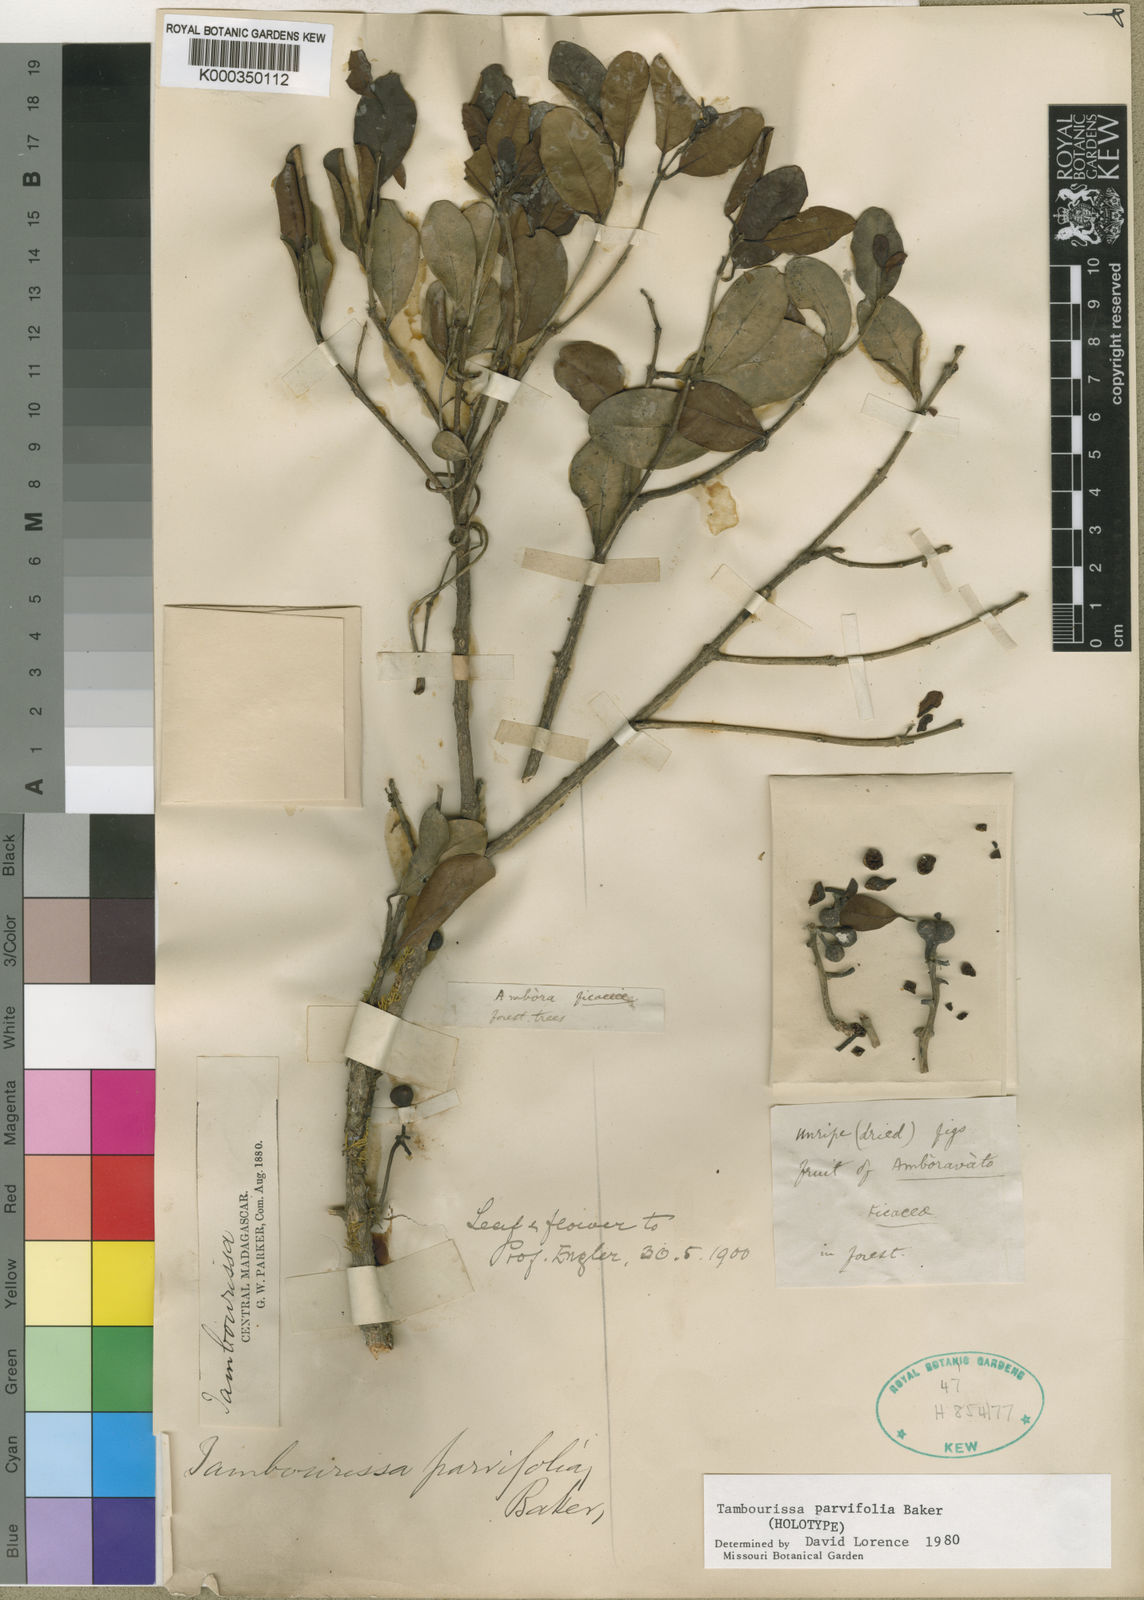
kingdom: Plantae
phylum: Tracheophyta
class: Magnoliopsida
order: Laurales
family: Monimiaceae
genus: Tambourissa
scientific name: Tambourissa parvifolia
